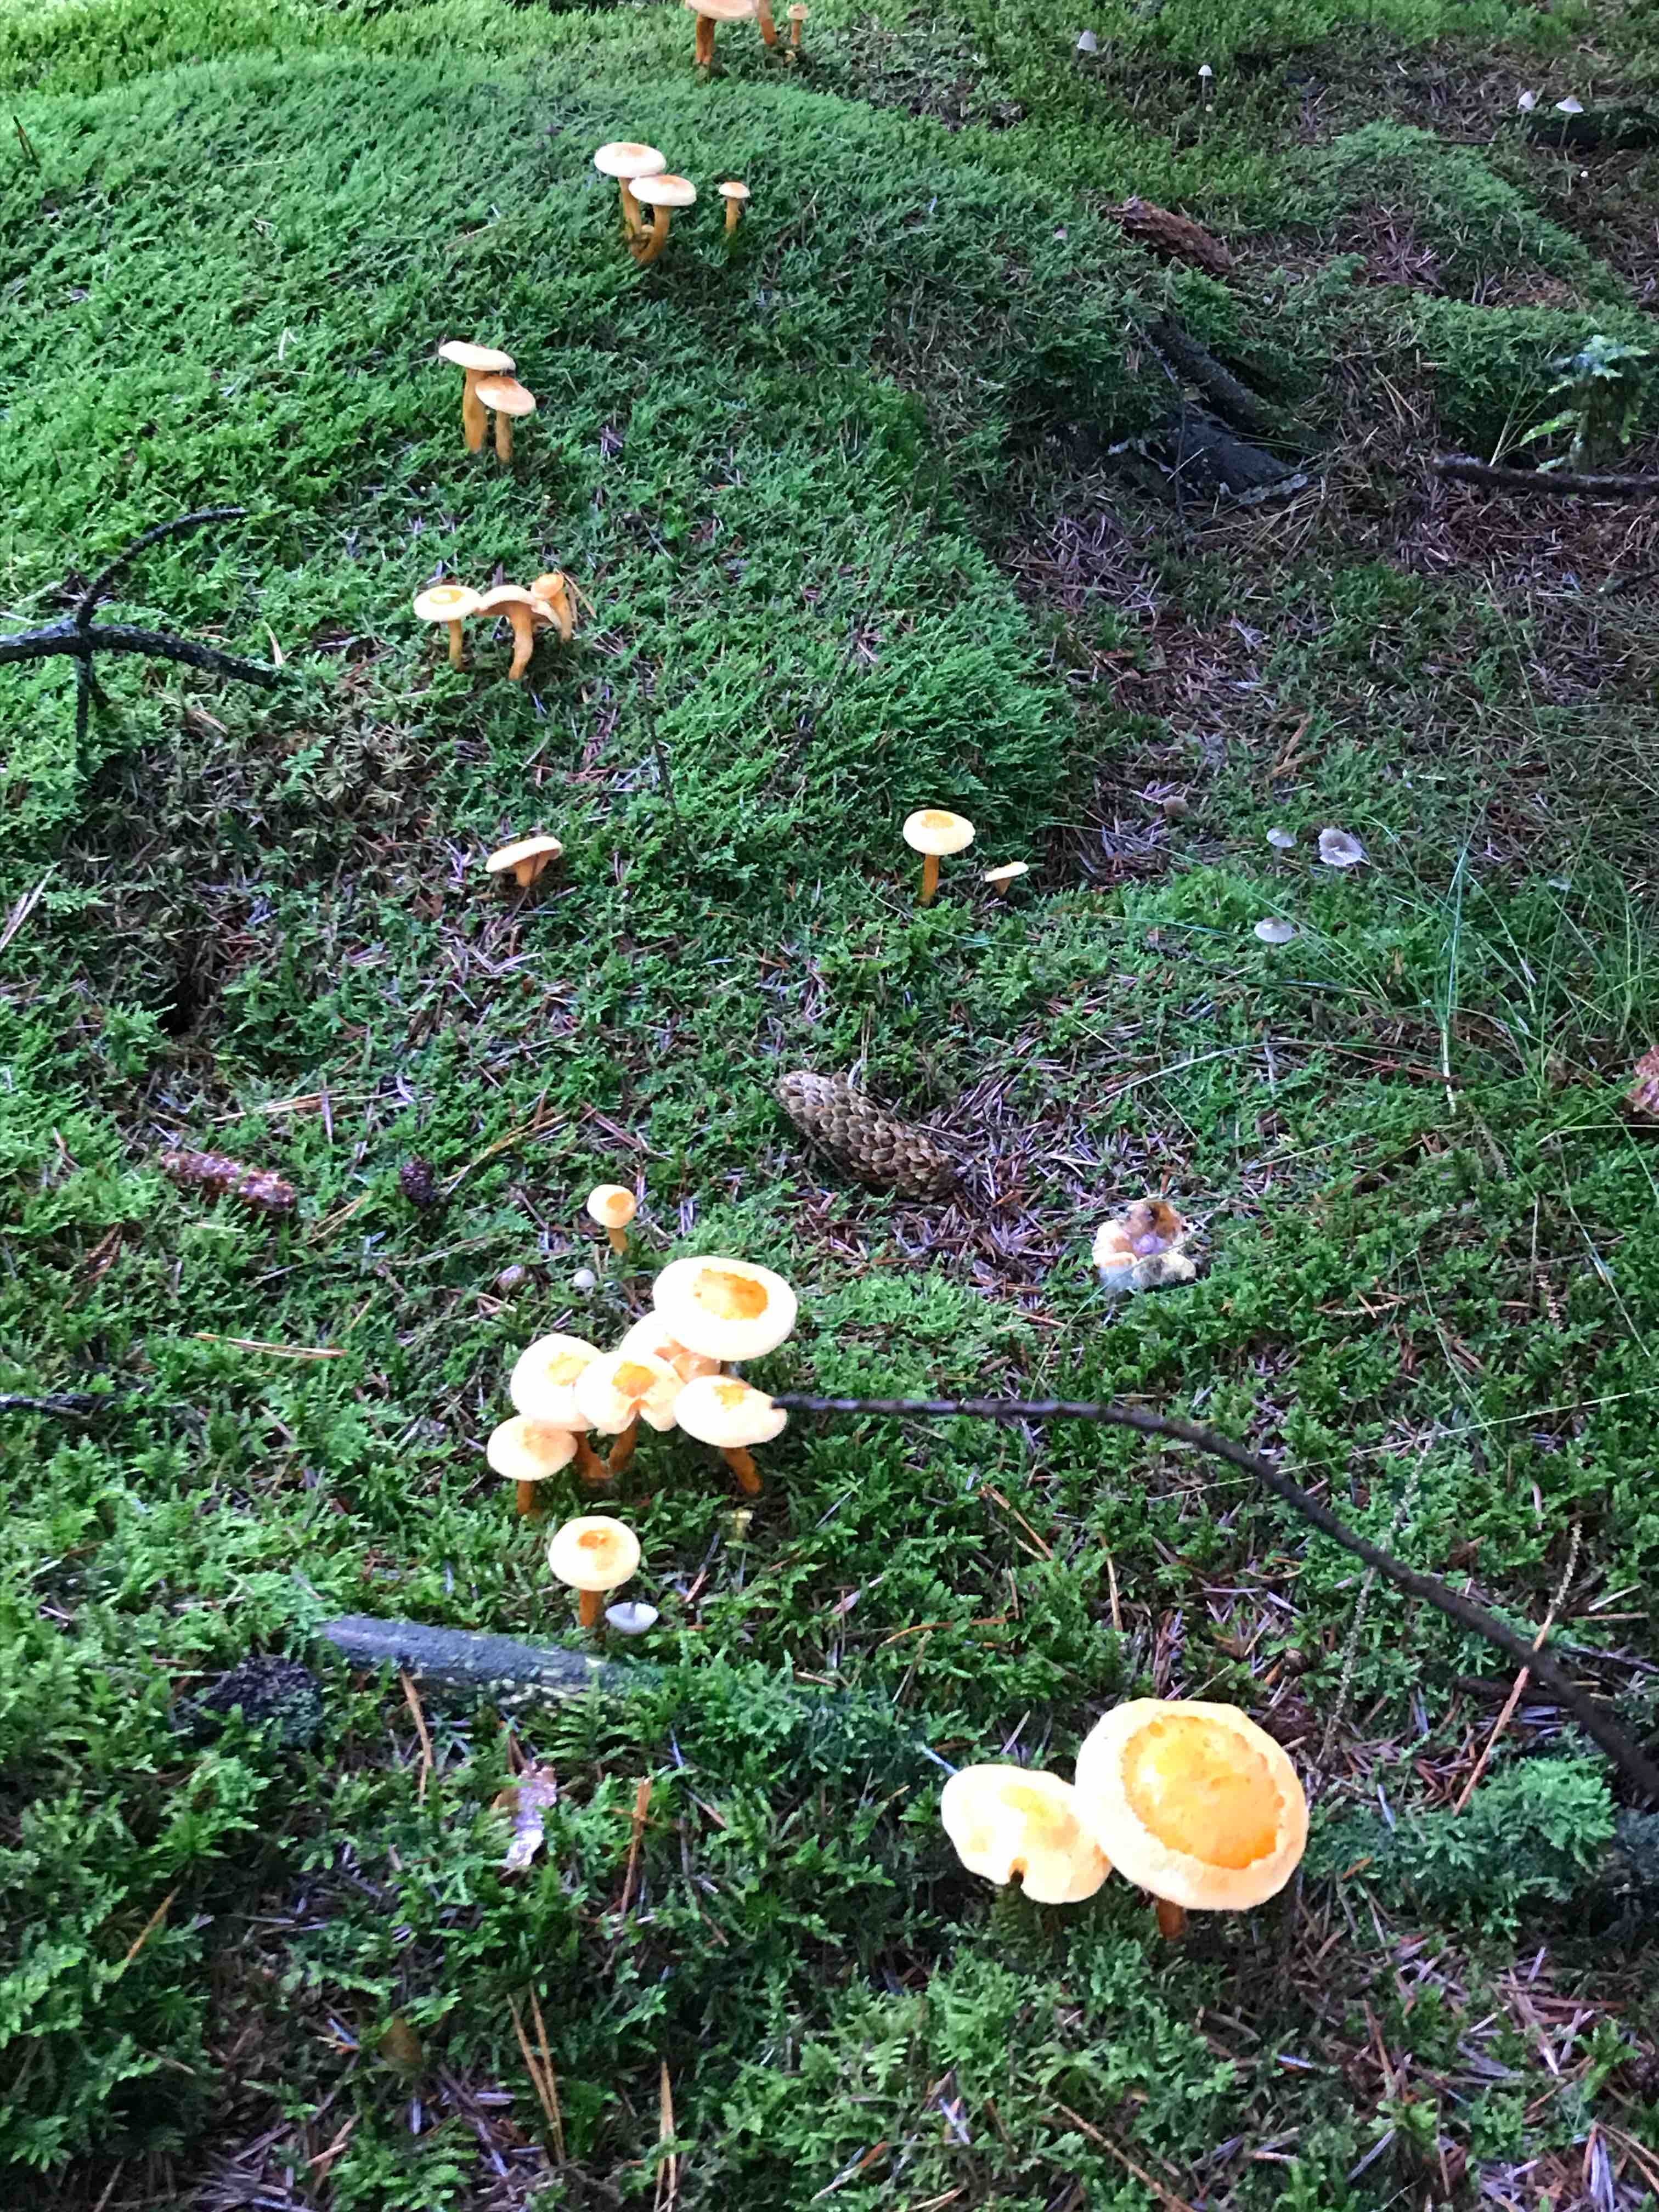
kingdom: Fungi
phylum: Basidiomycota
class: Agaricomycetes
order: Boletales
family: Hygrophoropsidaceae
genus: Hygrophoropsis
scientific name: Hygrophoropsis aurantiaca
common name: almindelig orangekantarel
